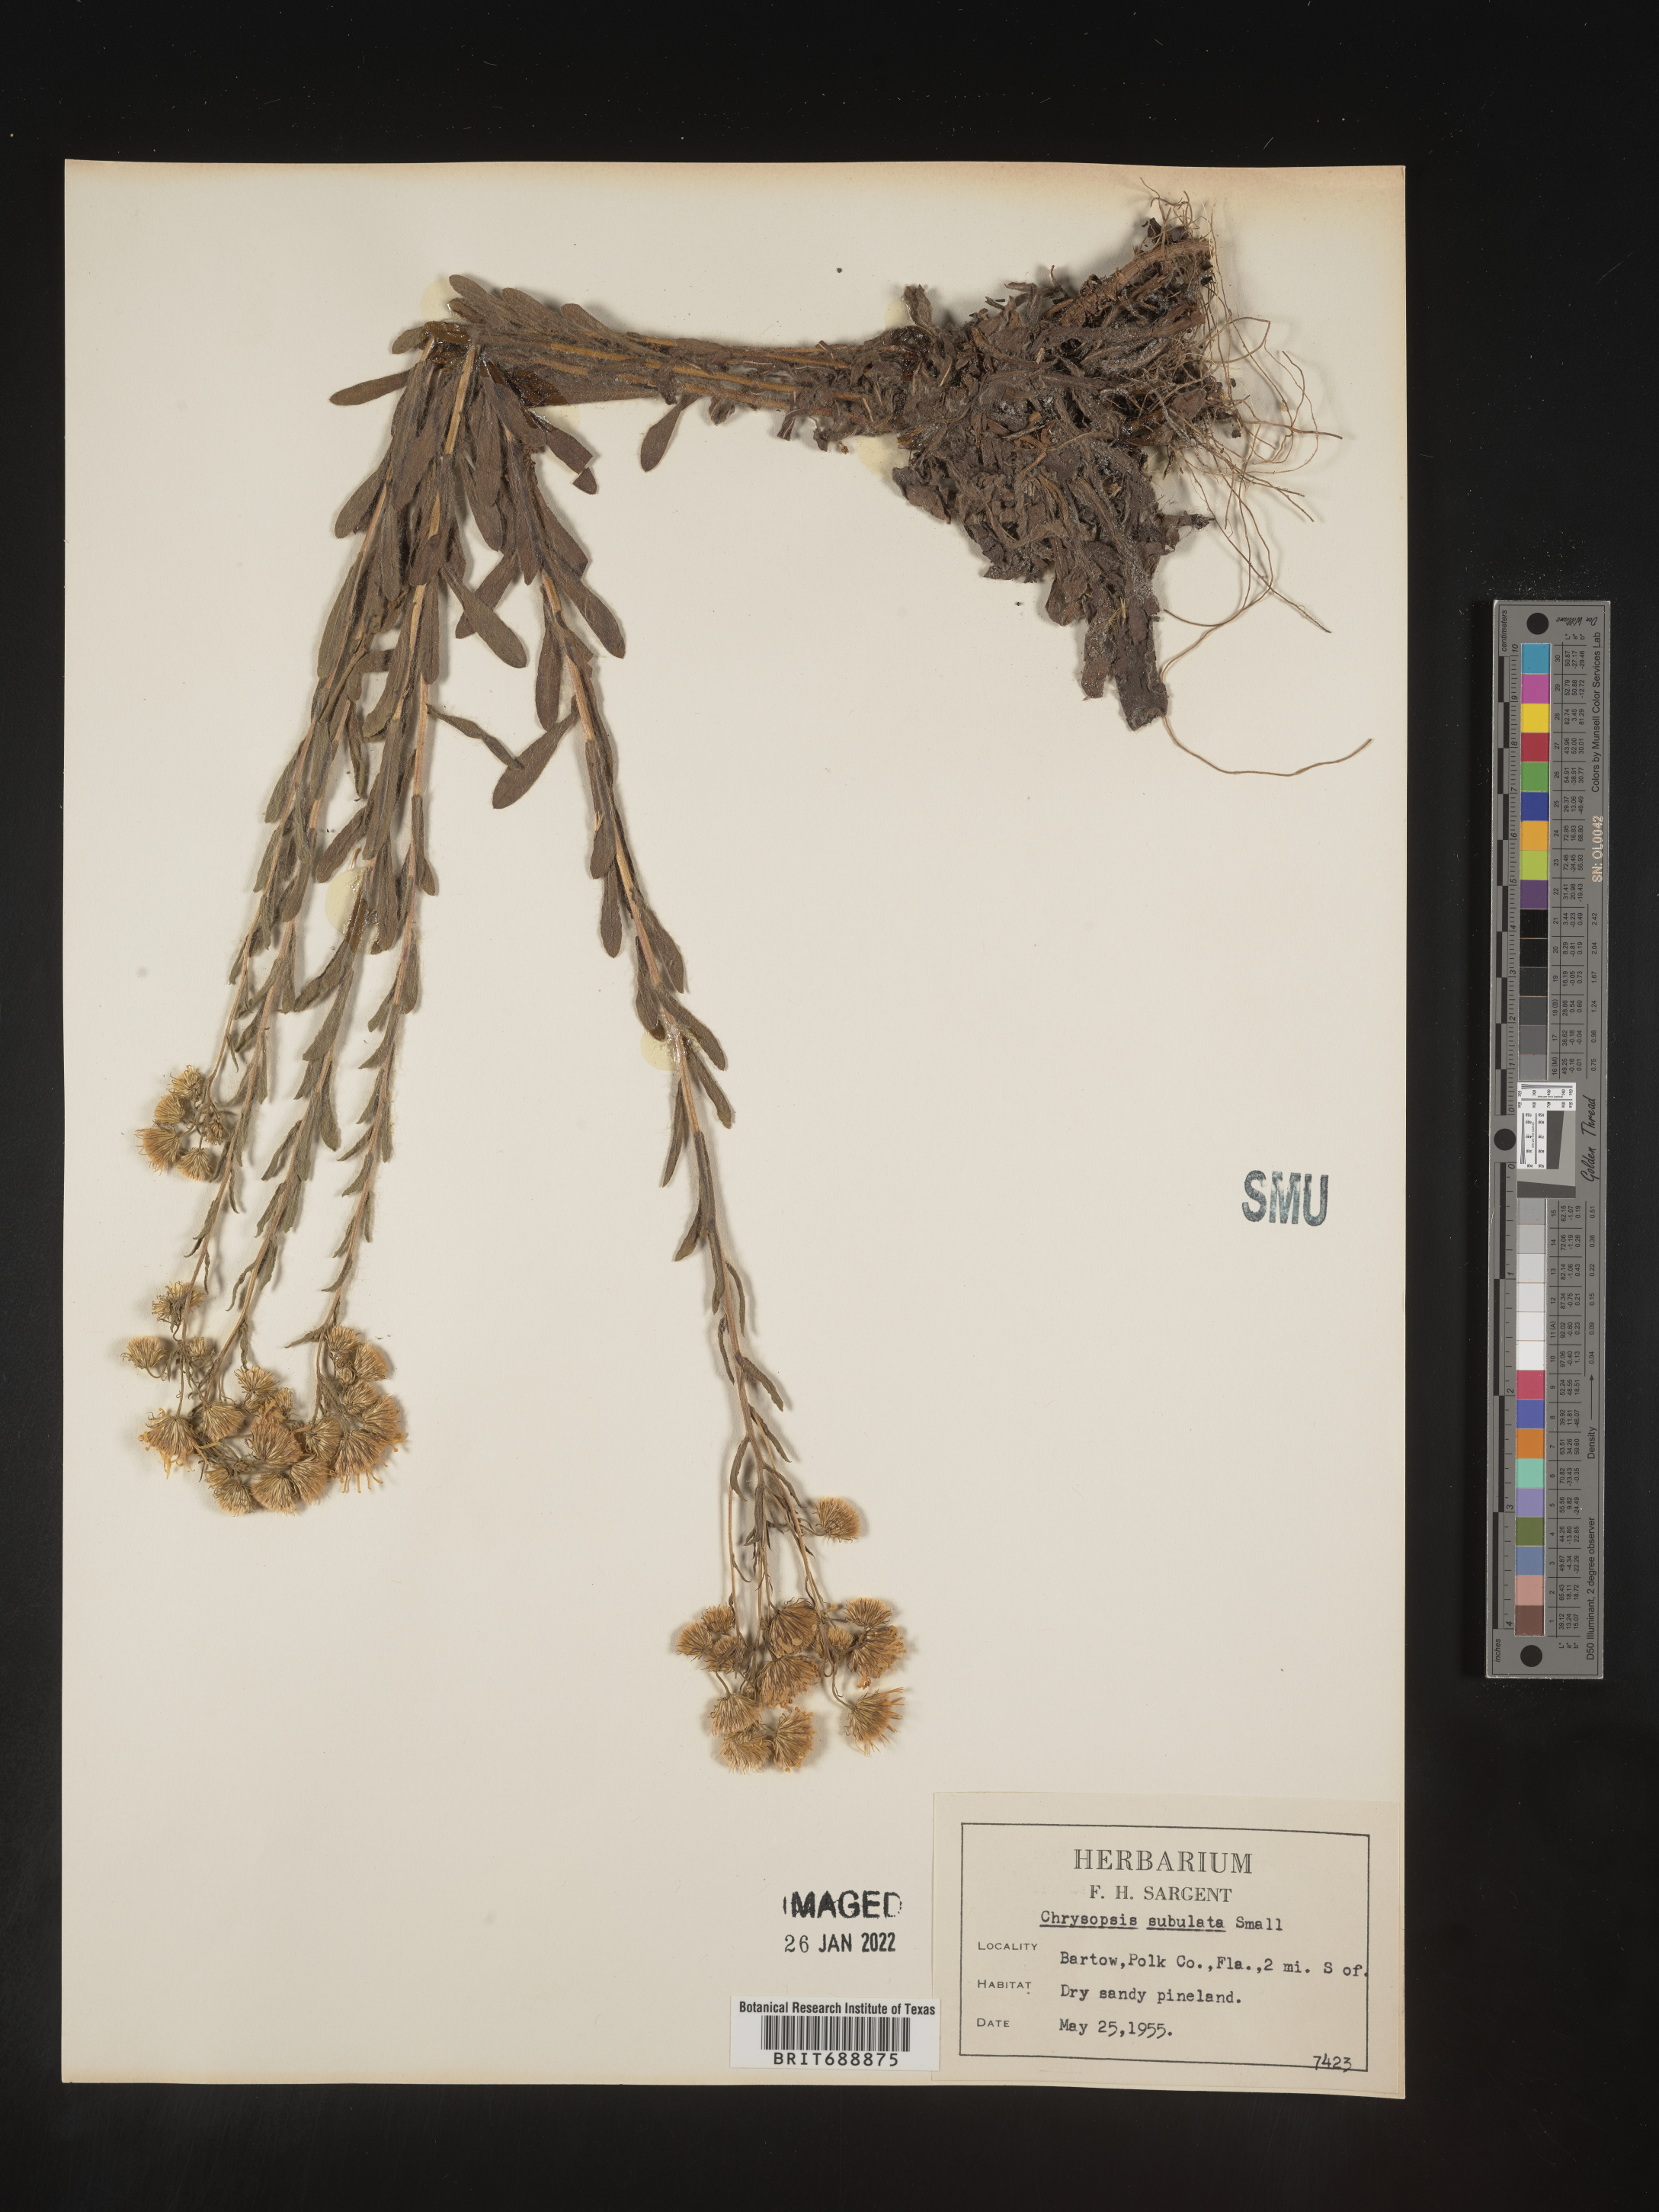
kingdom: Plantae
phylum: Tracheophyta
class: Magnoliopsida
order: Asterales
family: Asteraceae
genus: Chrysopsis
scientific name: Chrysopsis subulata
